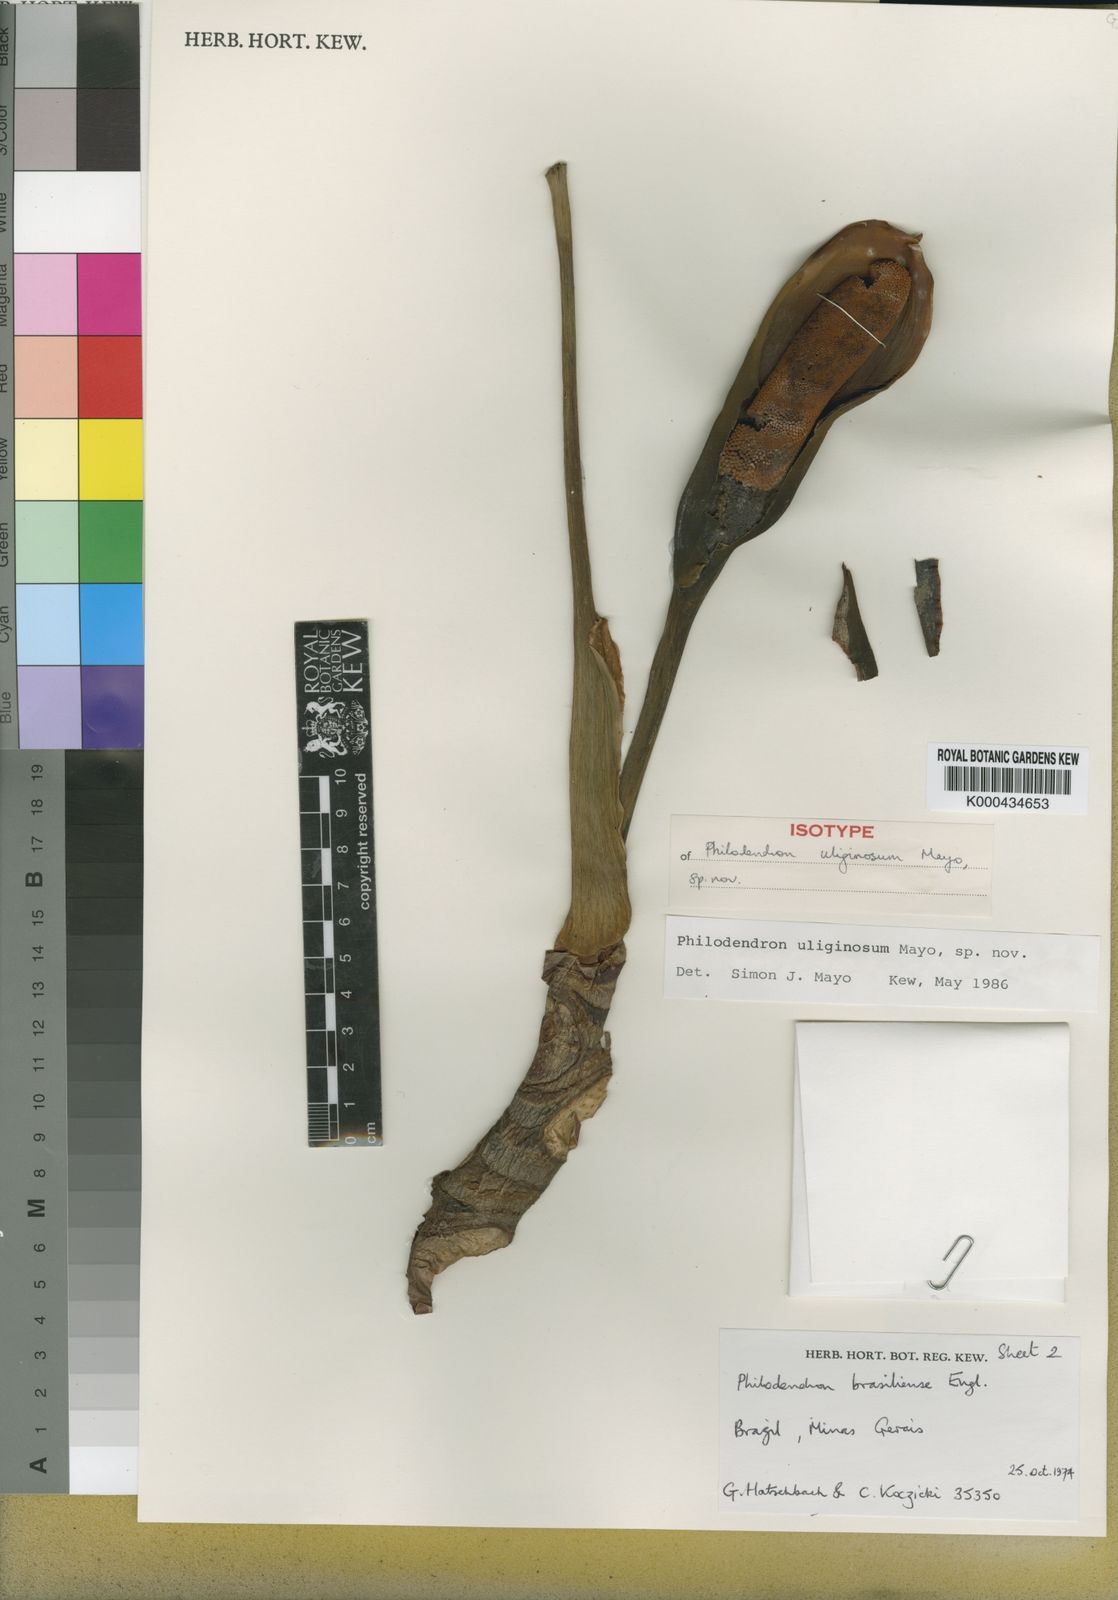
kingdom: Plantae
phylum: Tracheophyta
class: Liliopsida
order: Alismatales
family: Araceae
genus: Thaumatophyllum
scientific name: Thaumatophyllum uliginosum
